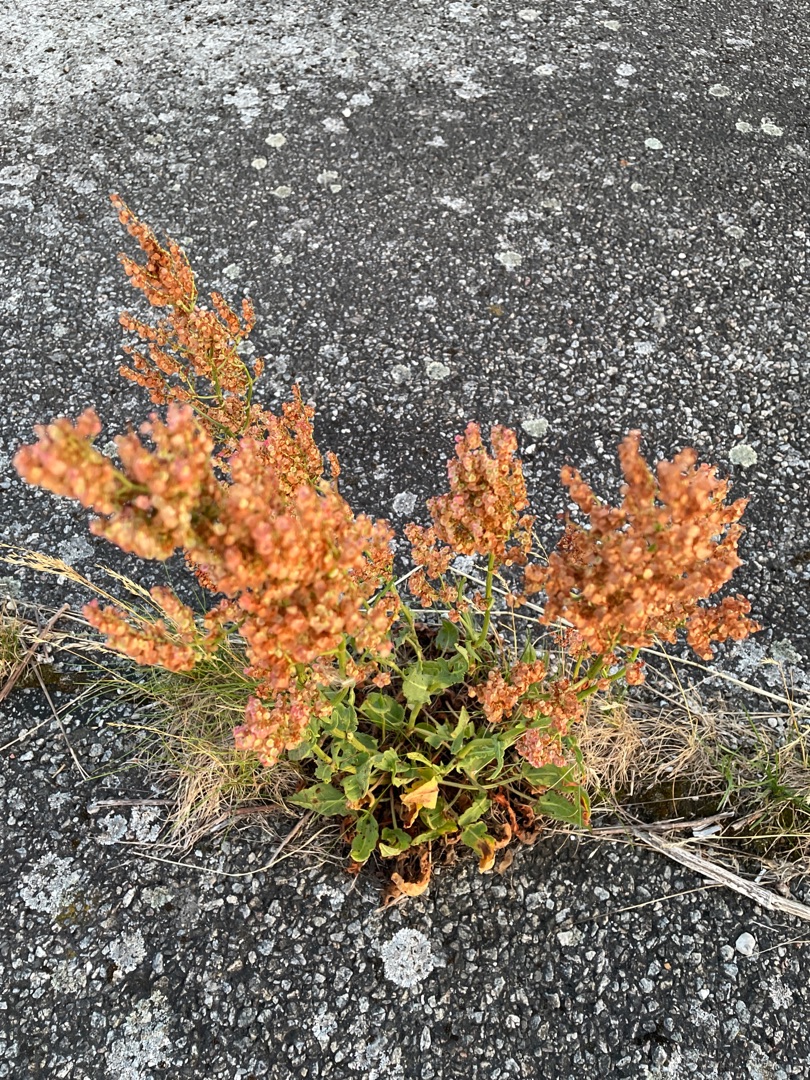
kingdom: Plantae
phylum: Tracheophyta
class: Magnoliopsida
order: Caryophyllales
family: Polygonaceae
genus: Rumex
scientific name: Rumex thyrsiflorus
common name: Dusk-syre
